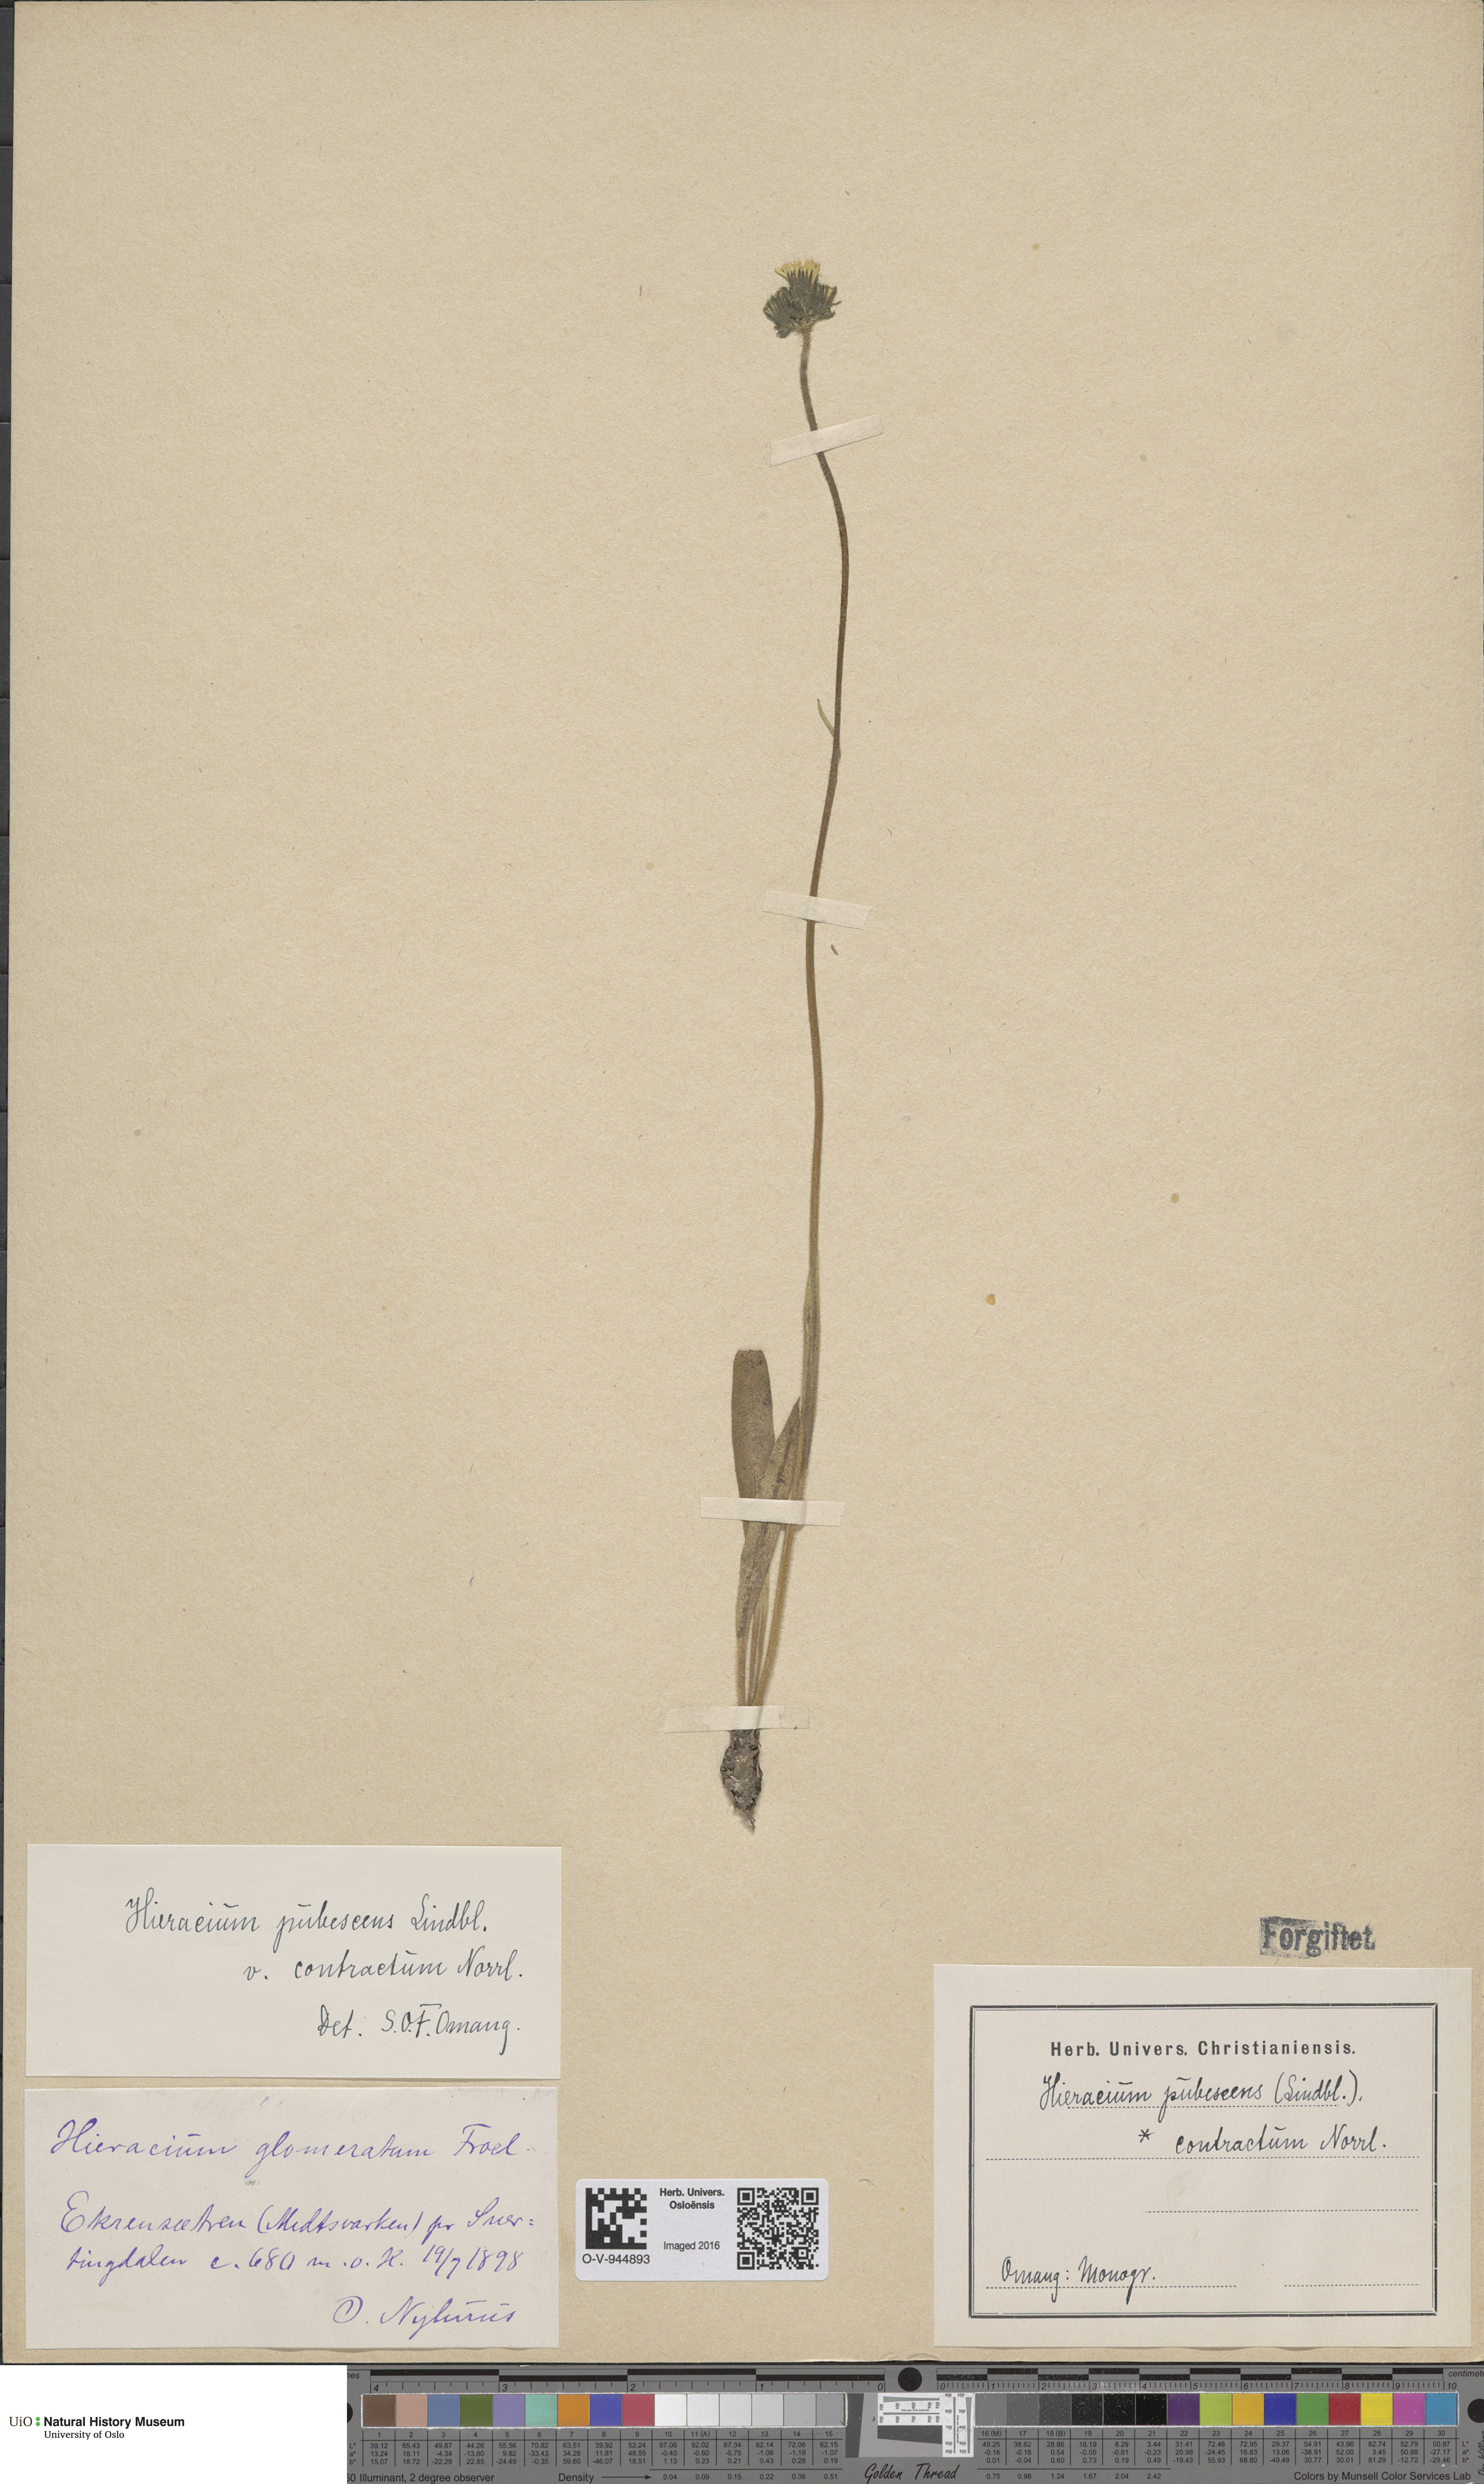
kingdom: Plantae
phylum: Tracheophyta
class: Magnoliopsida
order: Asterales
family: Asteraceae
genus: Pilosella
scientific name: Pilosella cymosa
